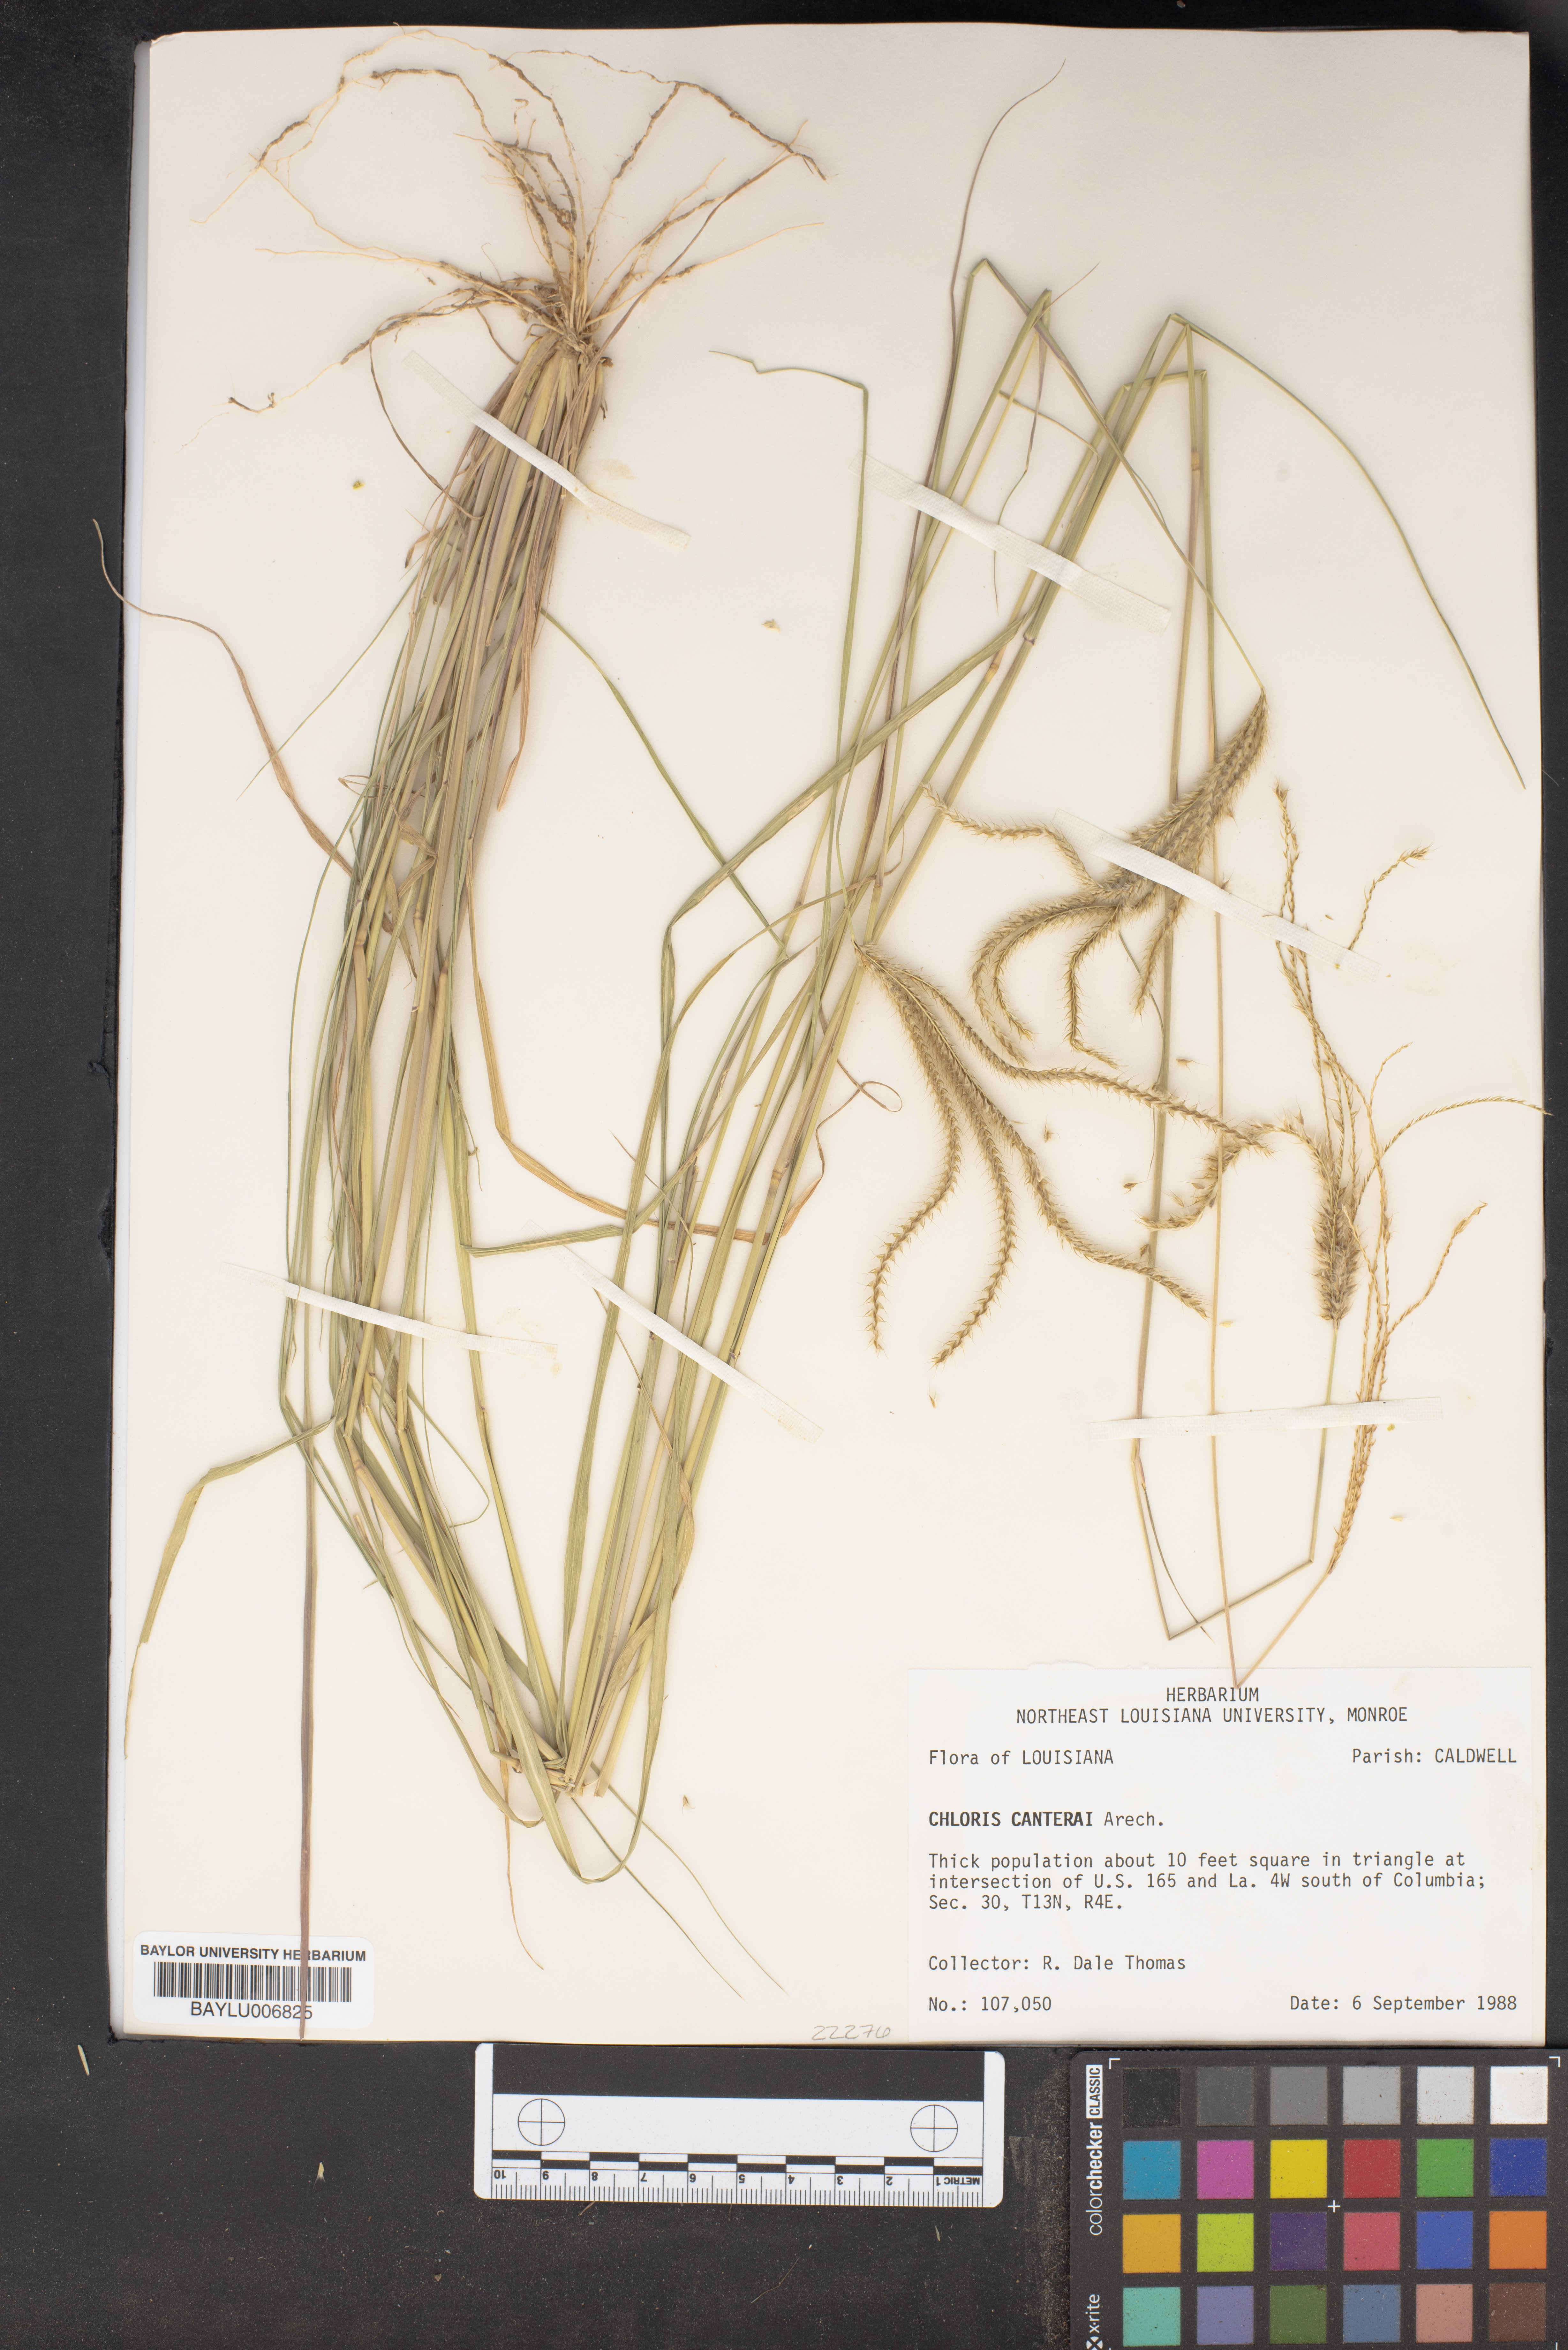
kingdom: Plantae
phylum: Tracheophyta
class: Liliopsida
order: Poales
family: Poaceae
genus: Stapfochloa
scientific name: Stapfochloa canterae
